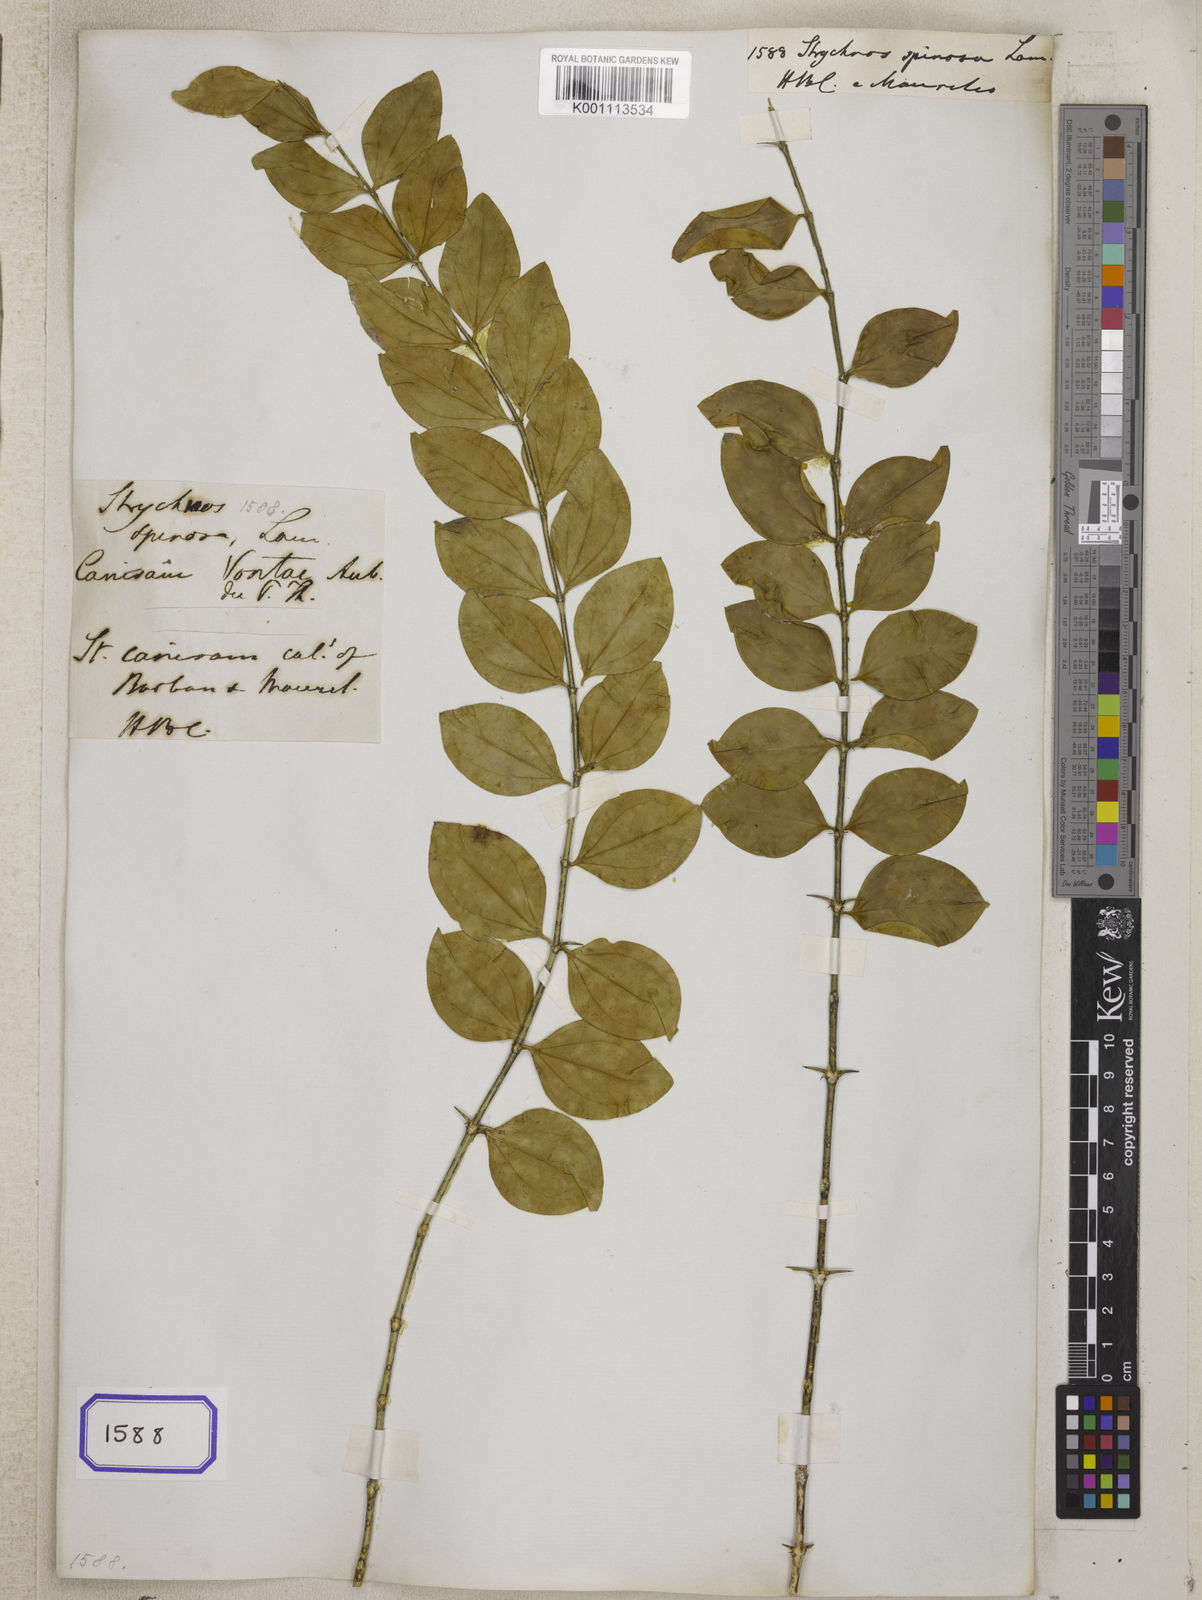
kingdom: Plantae
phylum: Tracheophyta
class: Magnoliopsida
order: Gentianales
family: Loganiaceae
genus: Strychnos
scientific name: Strychnos spinosa
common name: Natal orange
